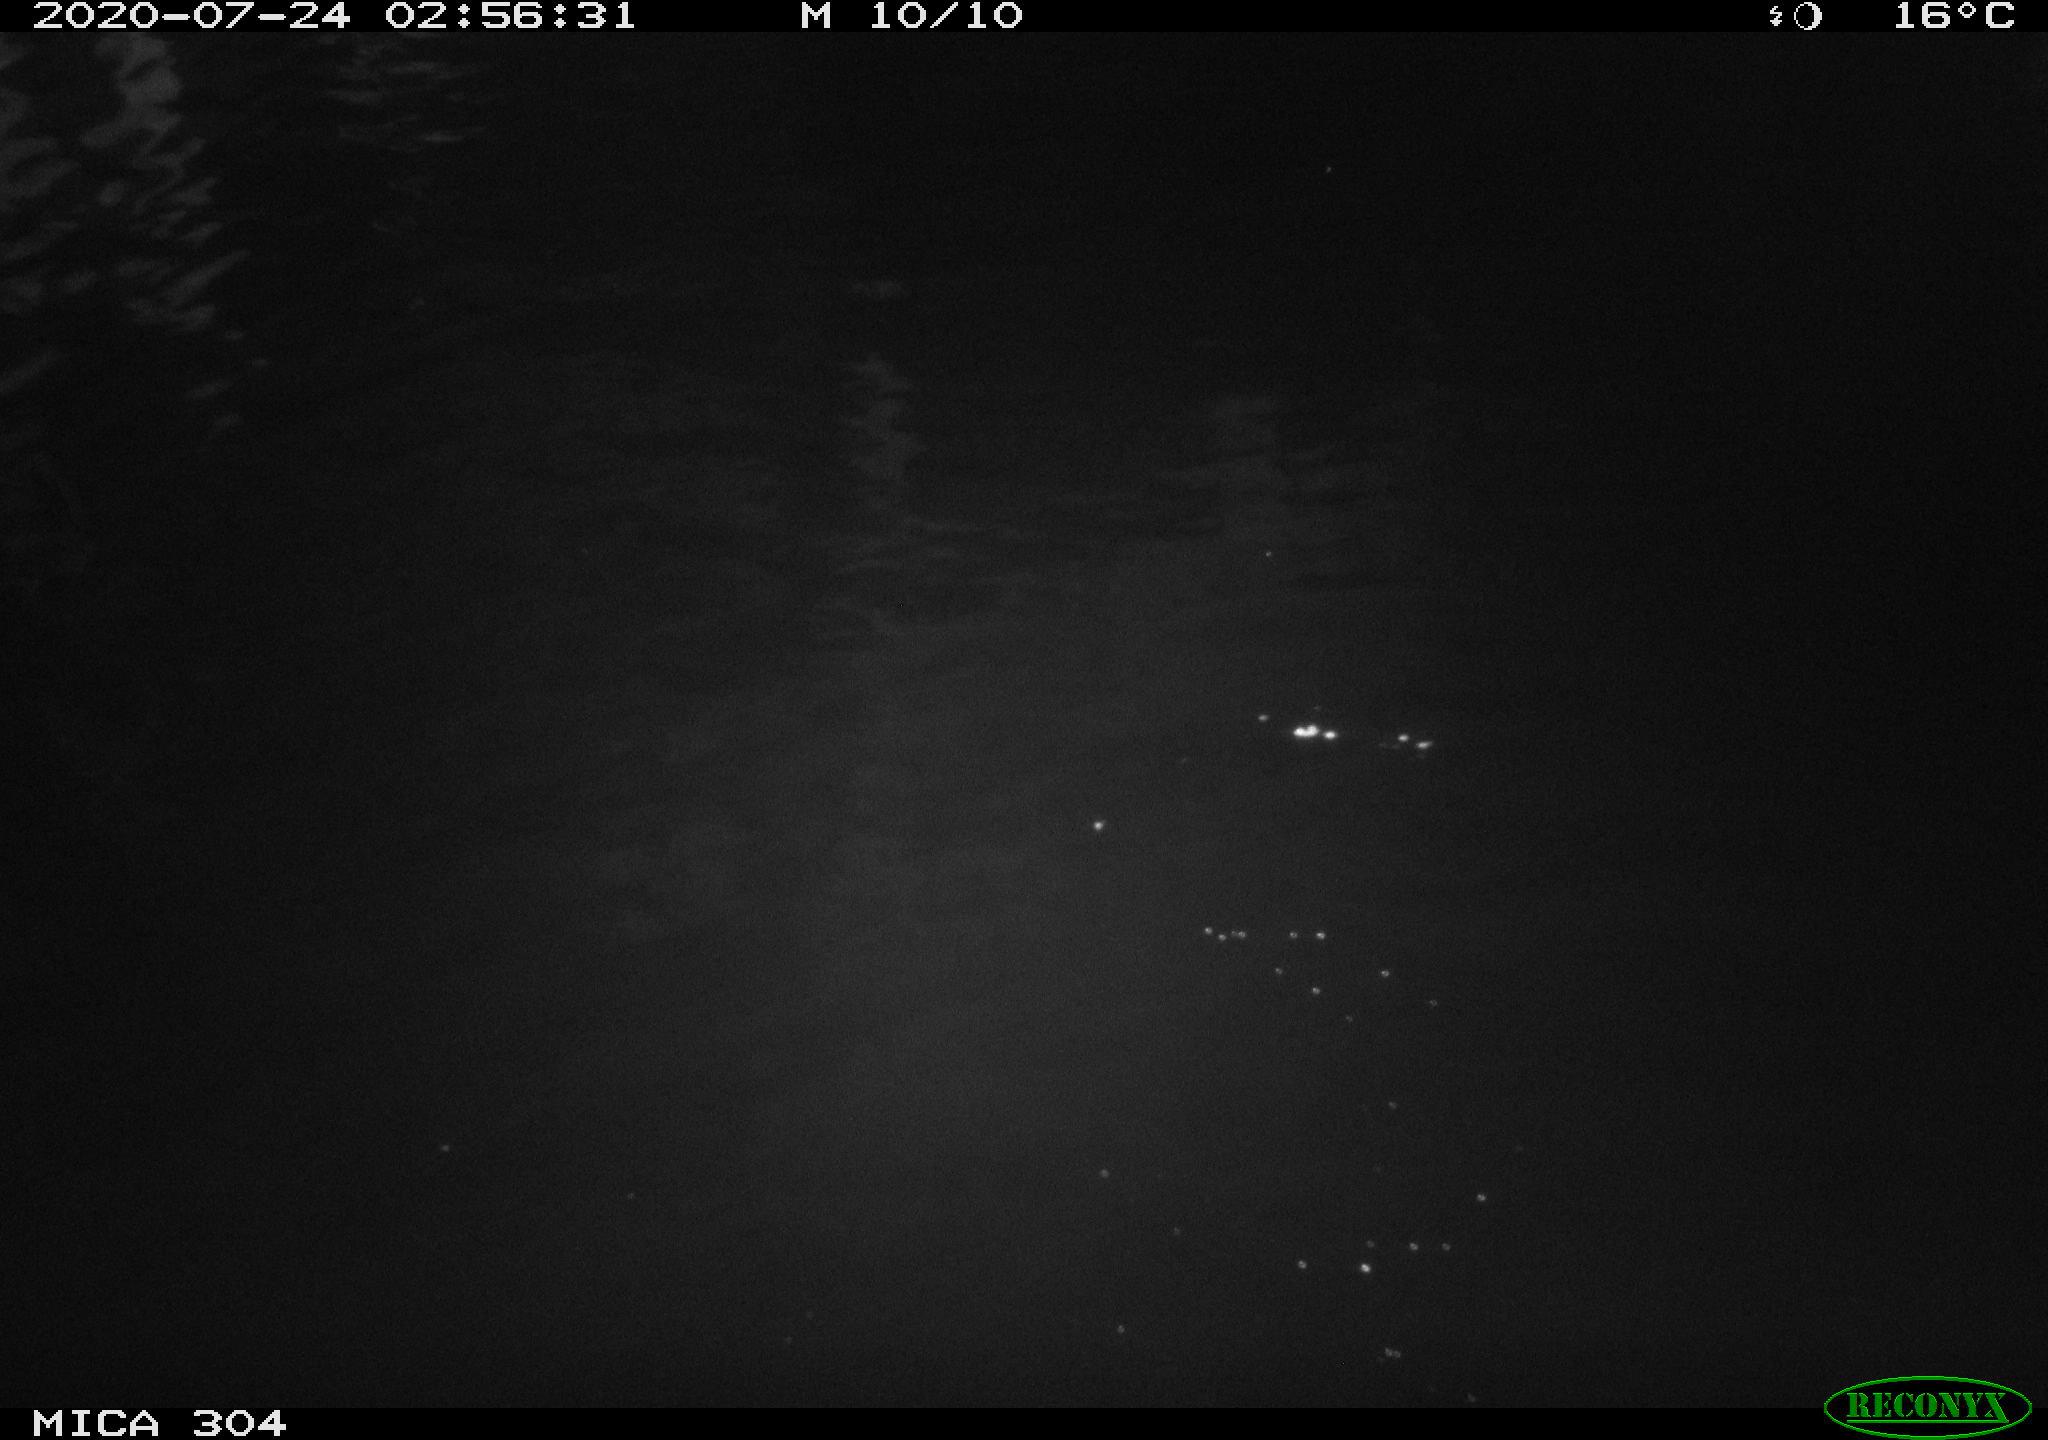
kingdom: Animalia
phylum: Chordata
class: Mammalia
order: Rodentia
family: Cricetidae
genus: Ondatra
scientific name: Ondatra zibethicus
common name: Muskrat
